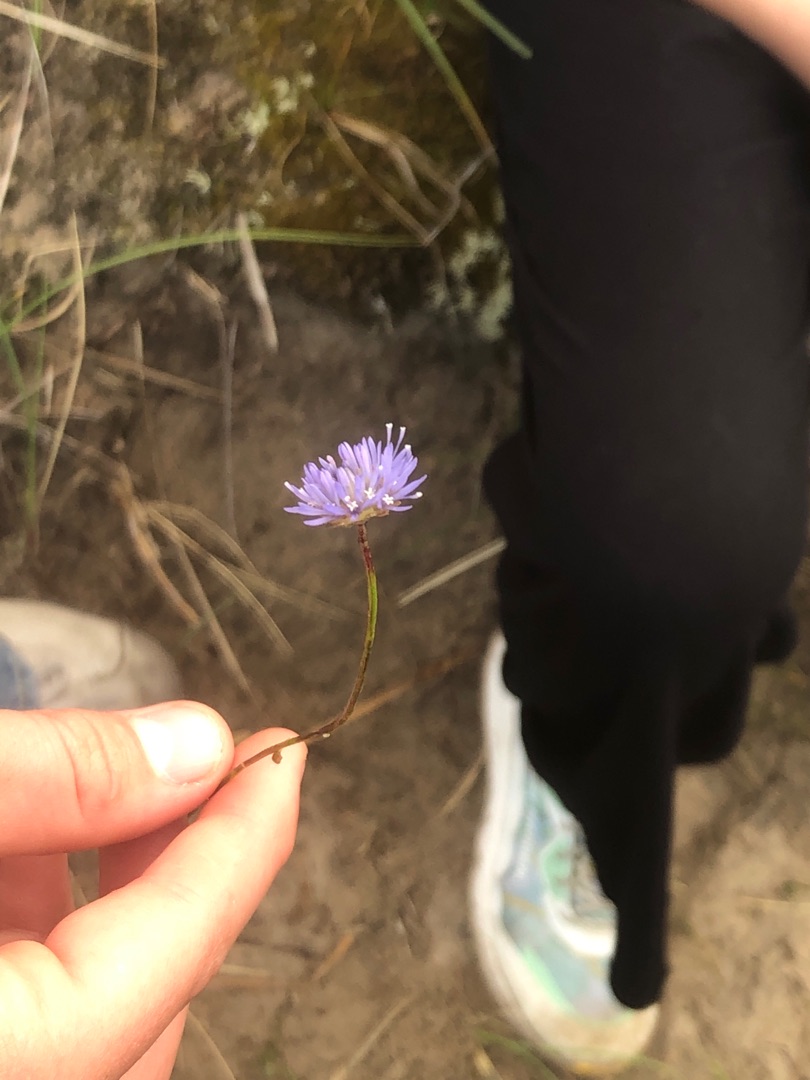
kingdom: Plantae
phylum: Tracheophyta
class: Magnoliopsida
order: Asterales
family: Campanulaceae
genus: Jasione
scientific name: Jasione montana
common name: Blåmunke
